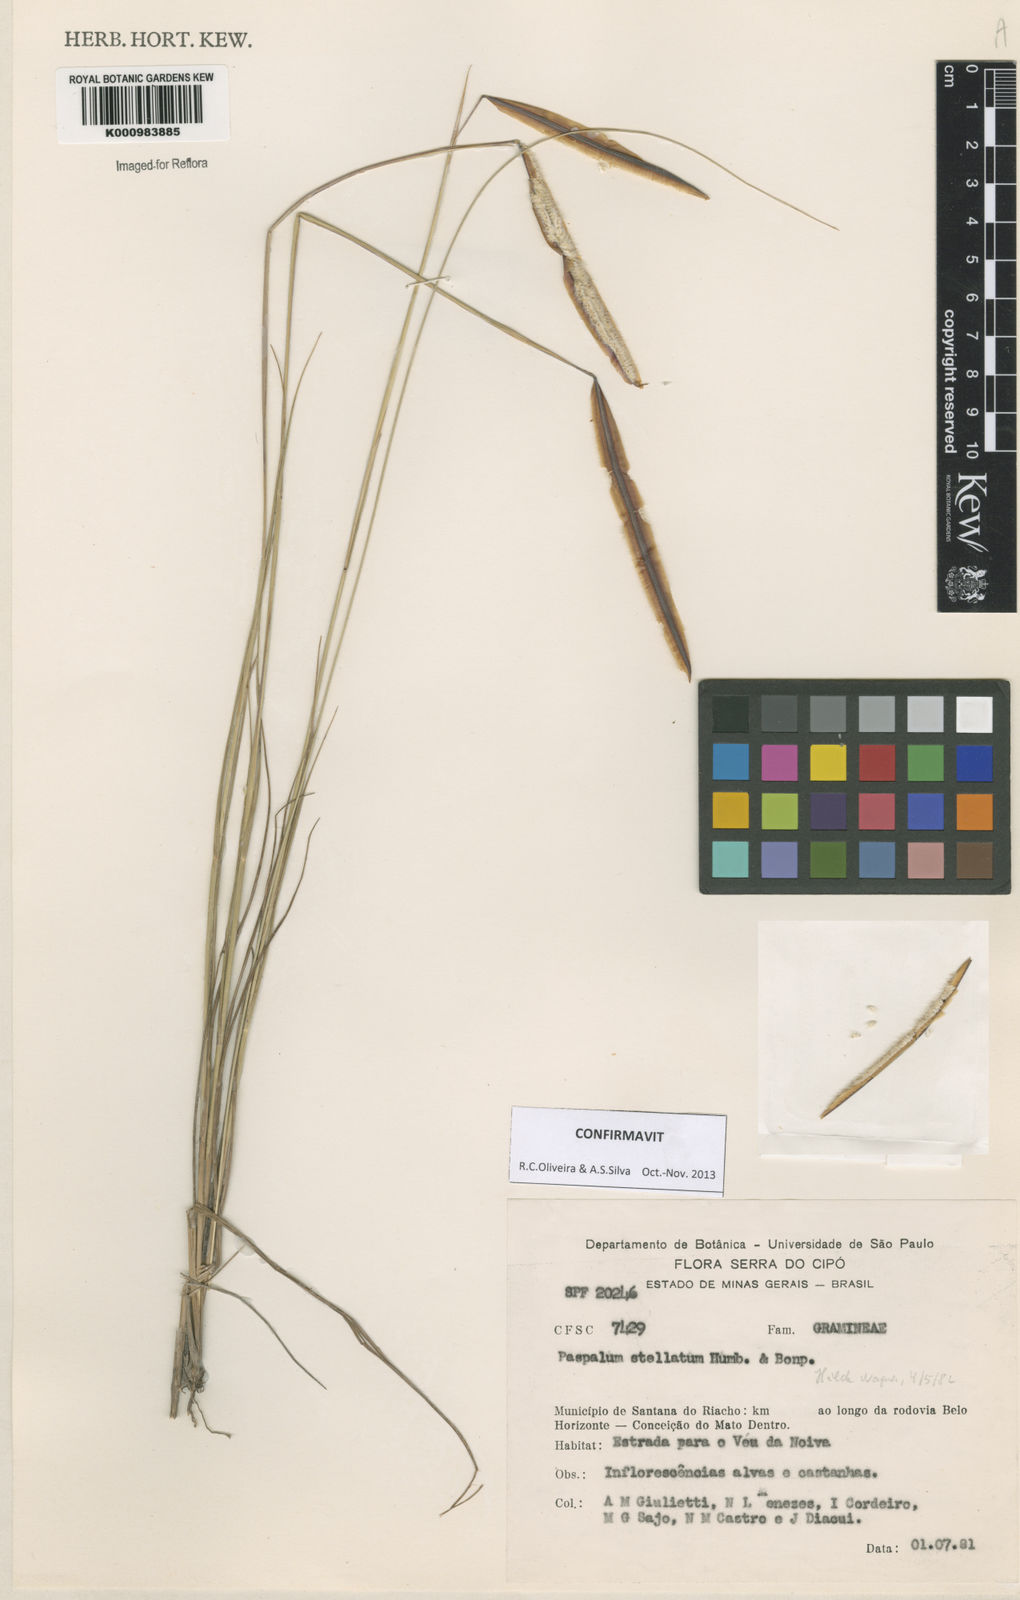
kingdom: Plantae
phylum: Tracheophyta
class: Liliopsida
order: Poales
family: Poaceae
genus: Paspalum
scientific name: Paspalum
